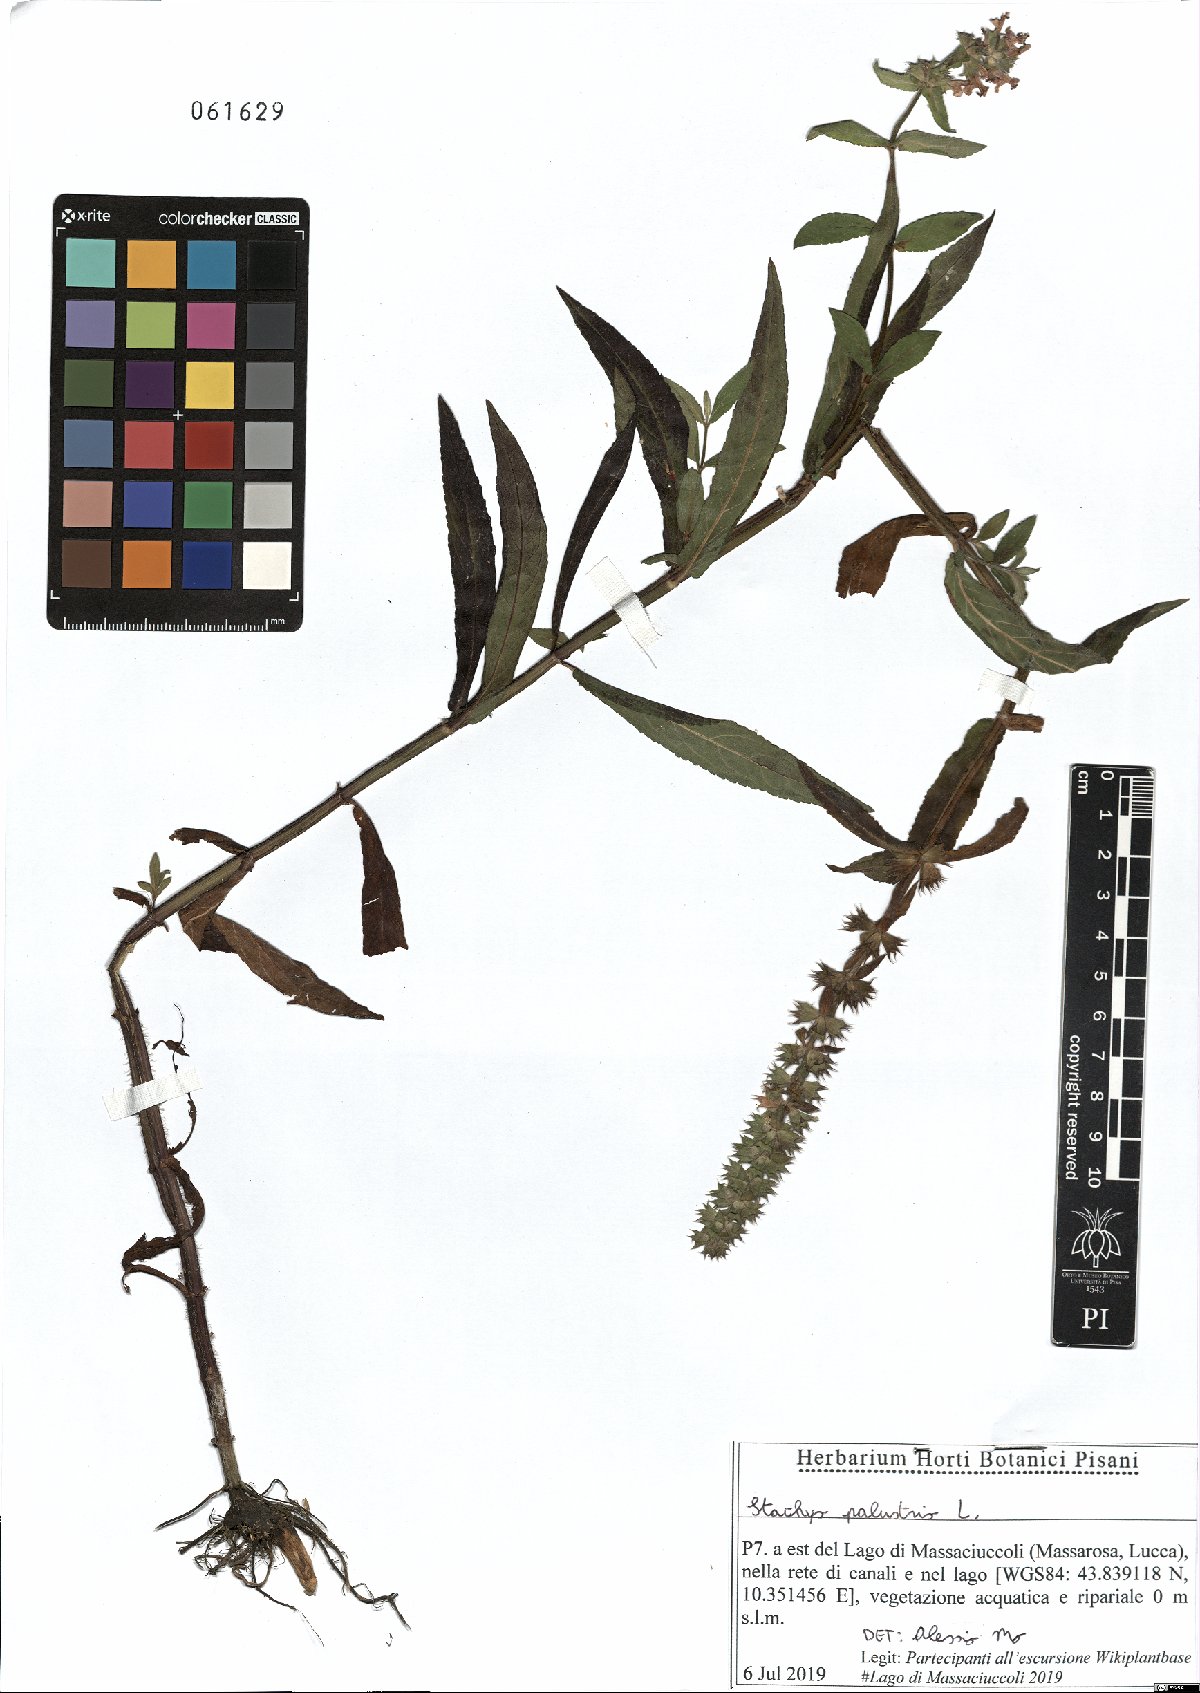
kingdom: Plantae
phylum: Tracheophyta
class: Magnoliopsida
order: Lamiales
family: Lamiaceae
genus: Stachys
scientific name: Stachys palustris
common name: Marsh woundwort
